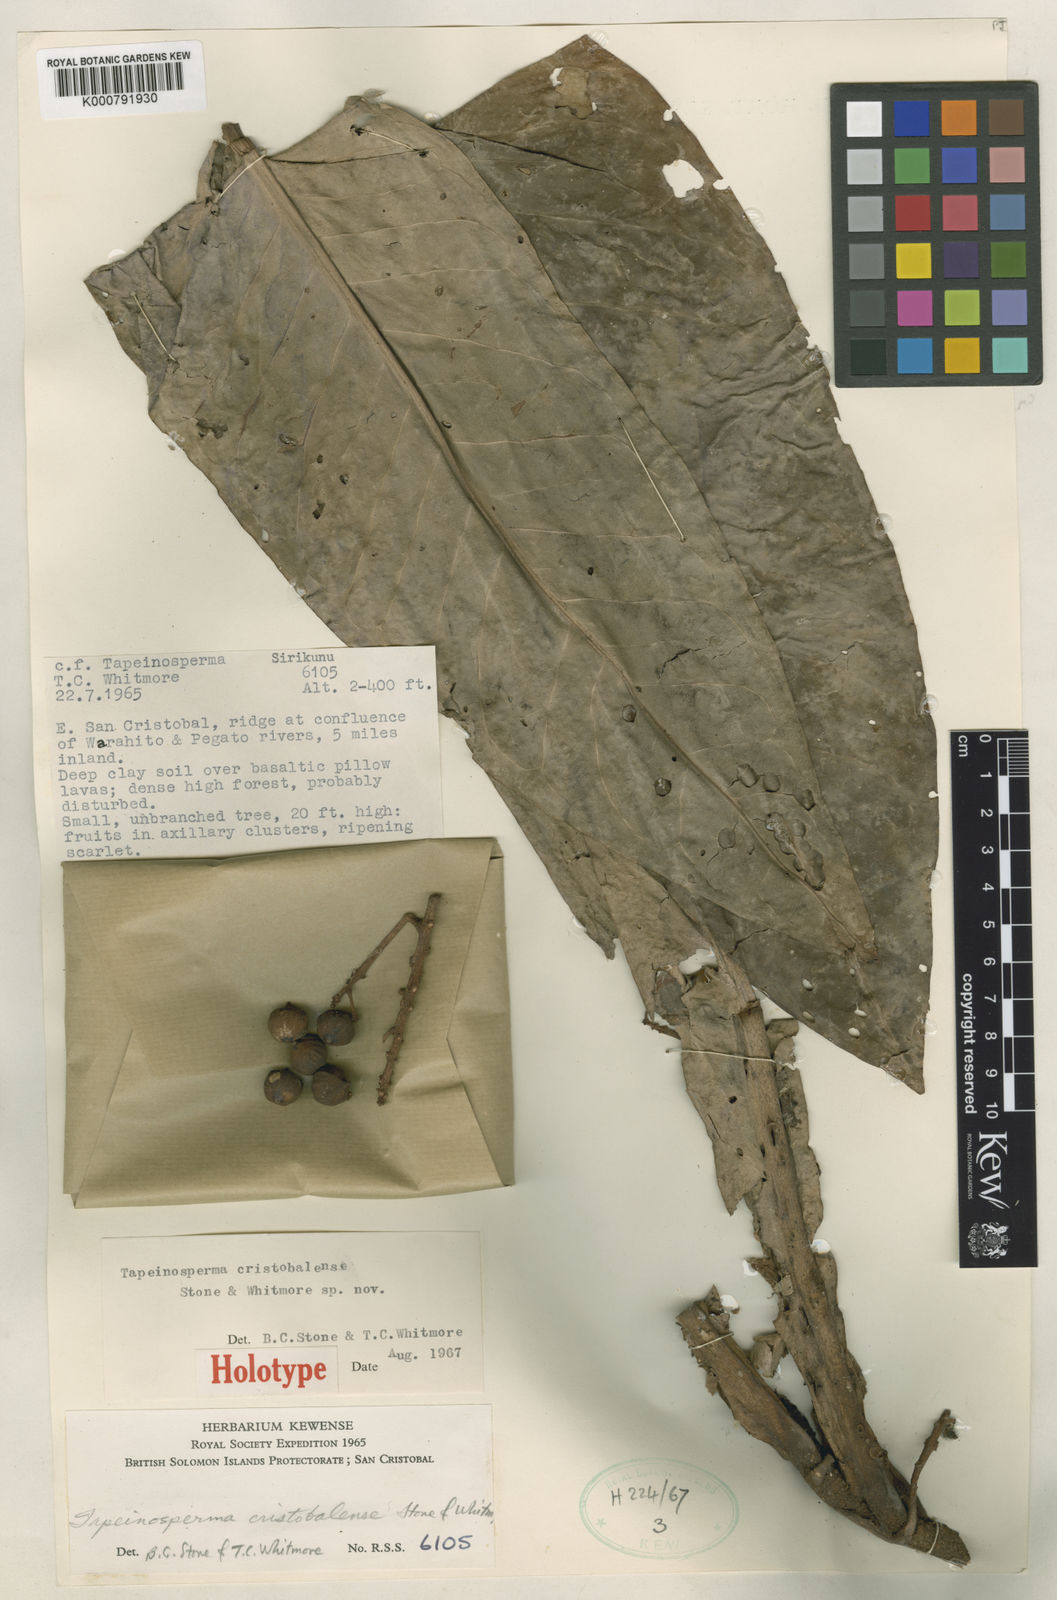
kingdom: Plantae
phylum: Tracheophyta
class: Magnoliopsida
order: Ericales
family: Primulaceae
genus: Tapeinosperma
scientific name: Tapeinosperma cristobalense
